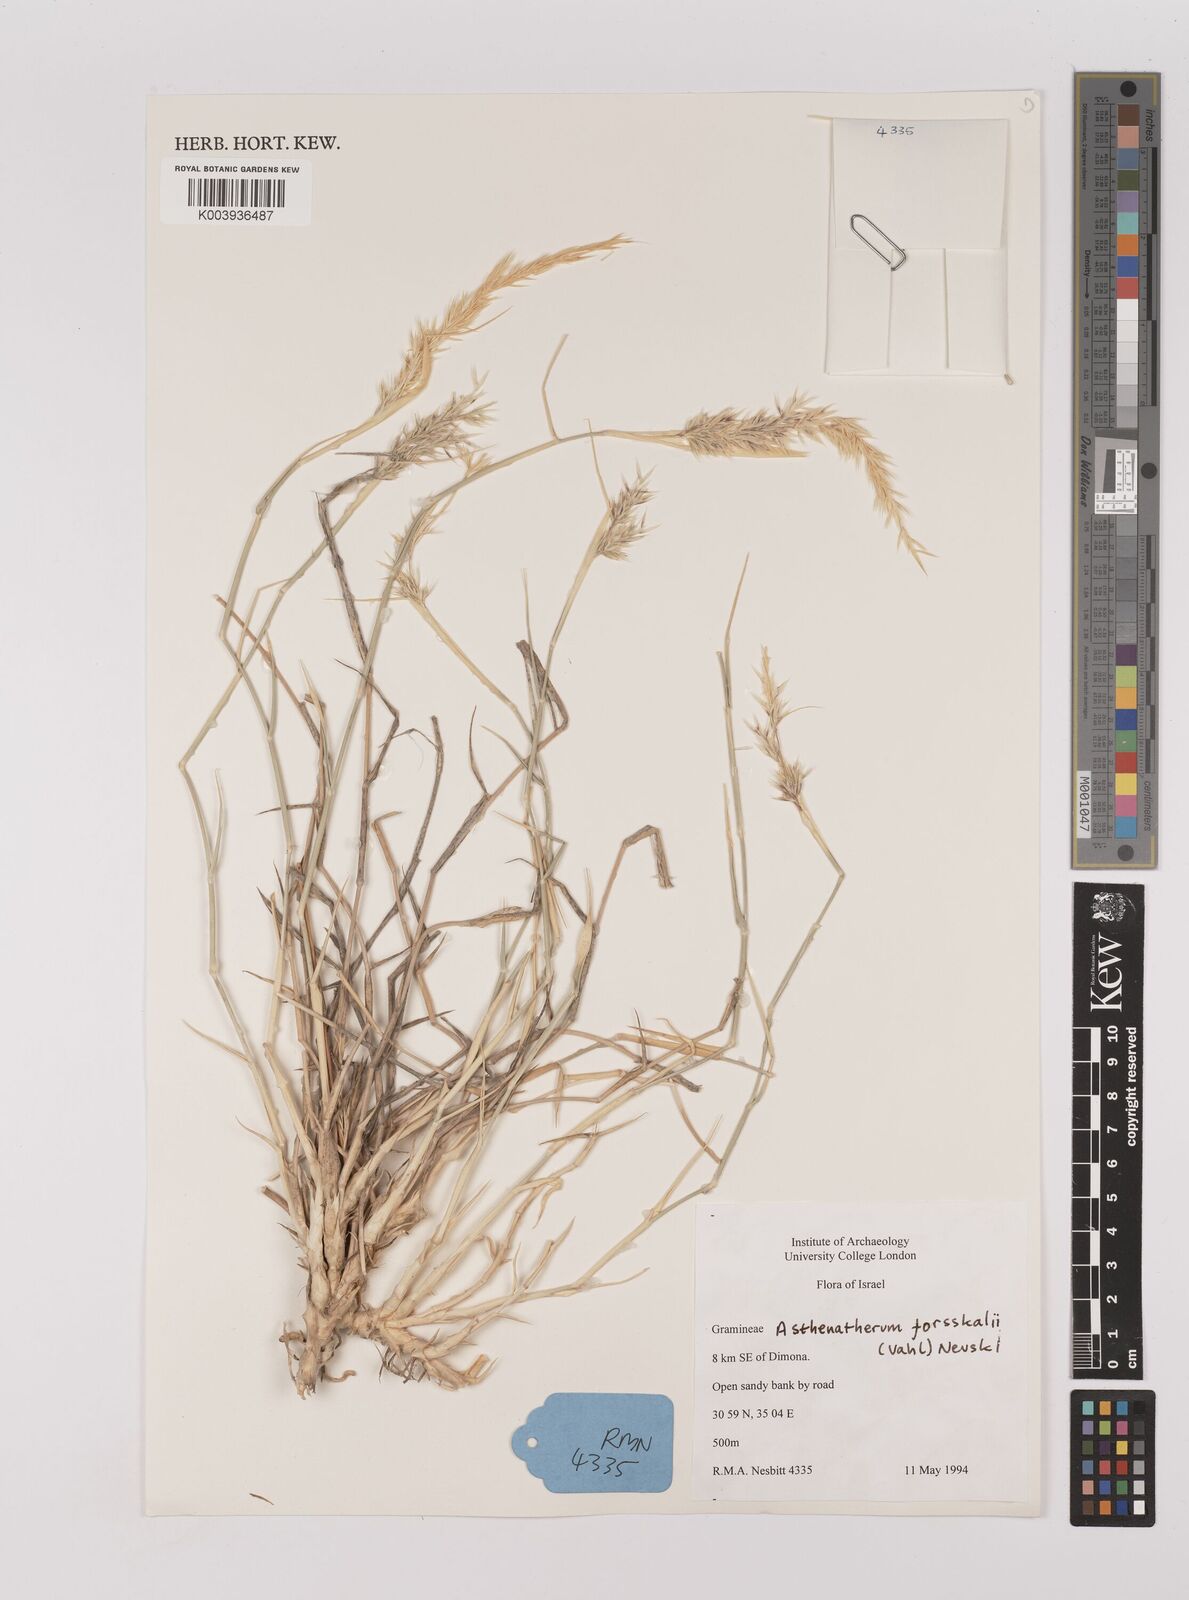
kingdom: Plantae
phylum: Tracheophyta
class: Liliopsida
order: Poales
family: Poaceae
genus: Centropodia
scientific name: Centropodia forskaolii
